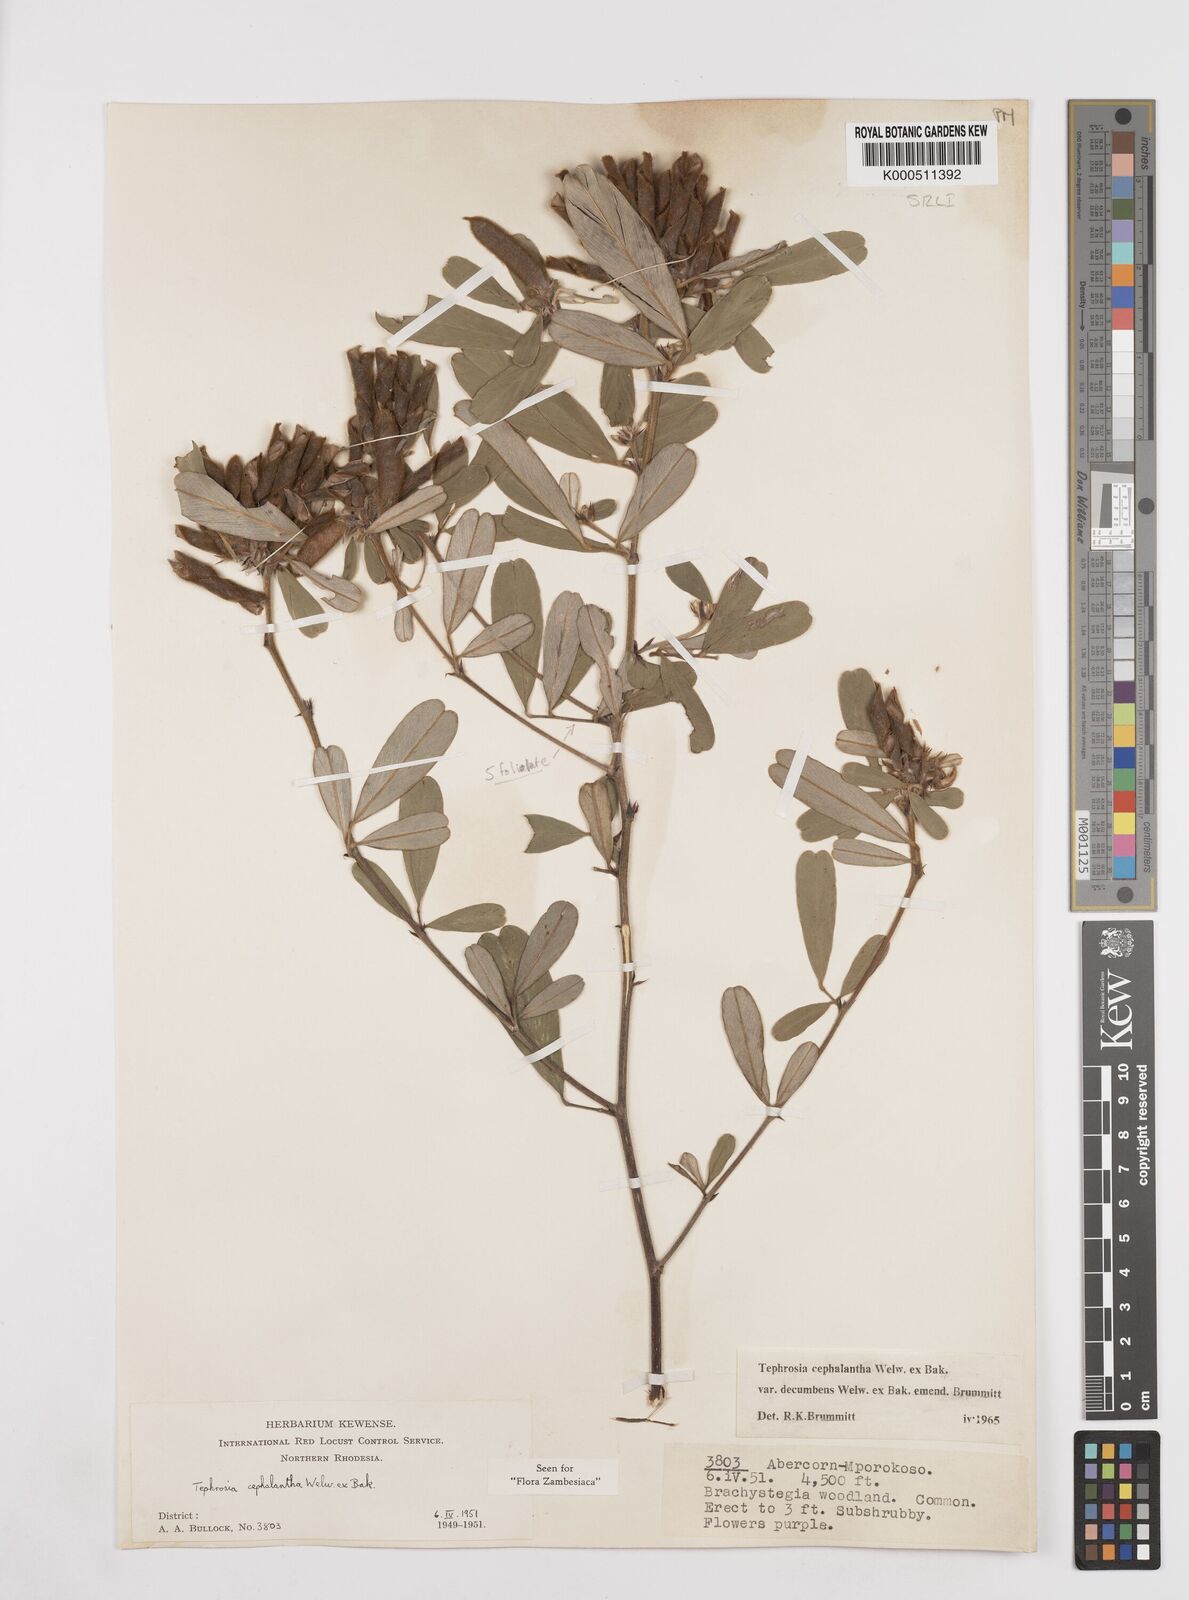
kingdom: Plantae
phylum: Tracheophyta
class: Magnoliopsida
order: Fabales
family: Fabaceae
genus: Tephrosia
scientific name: Tephrosia
